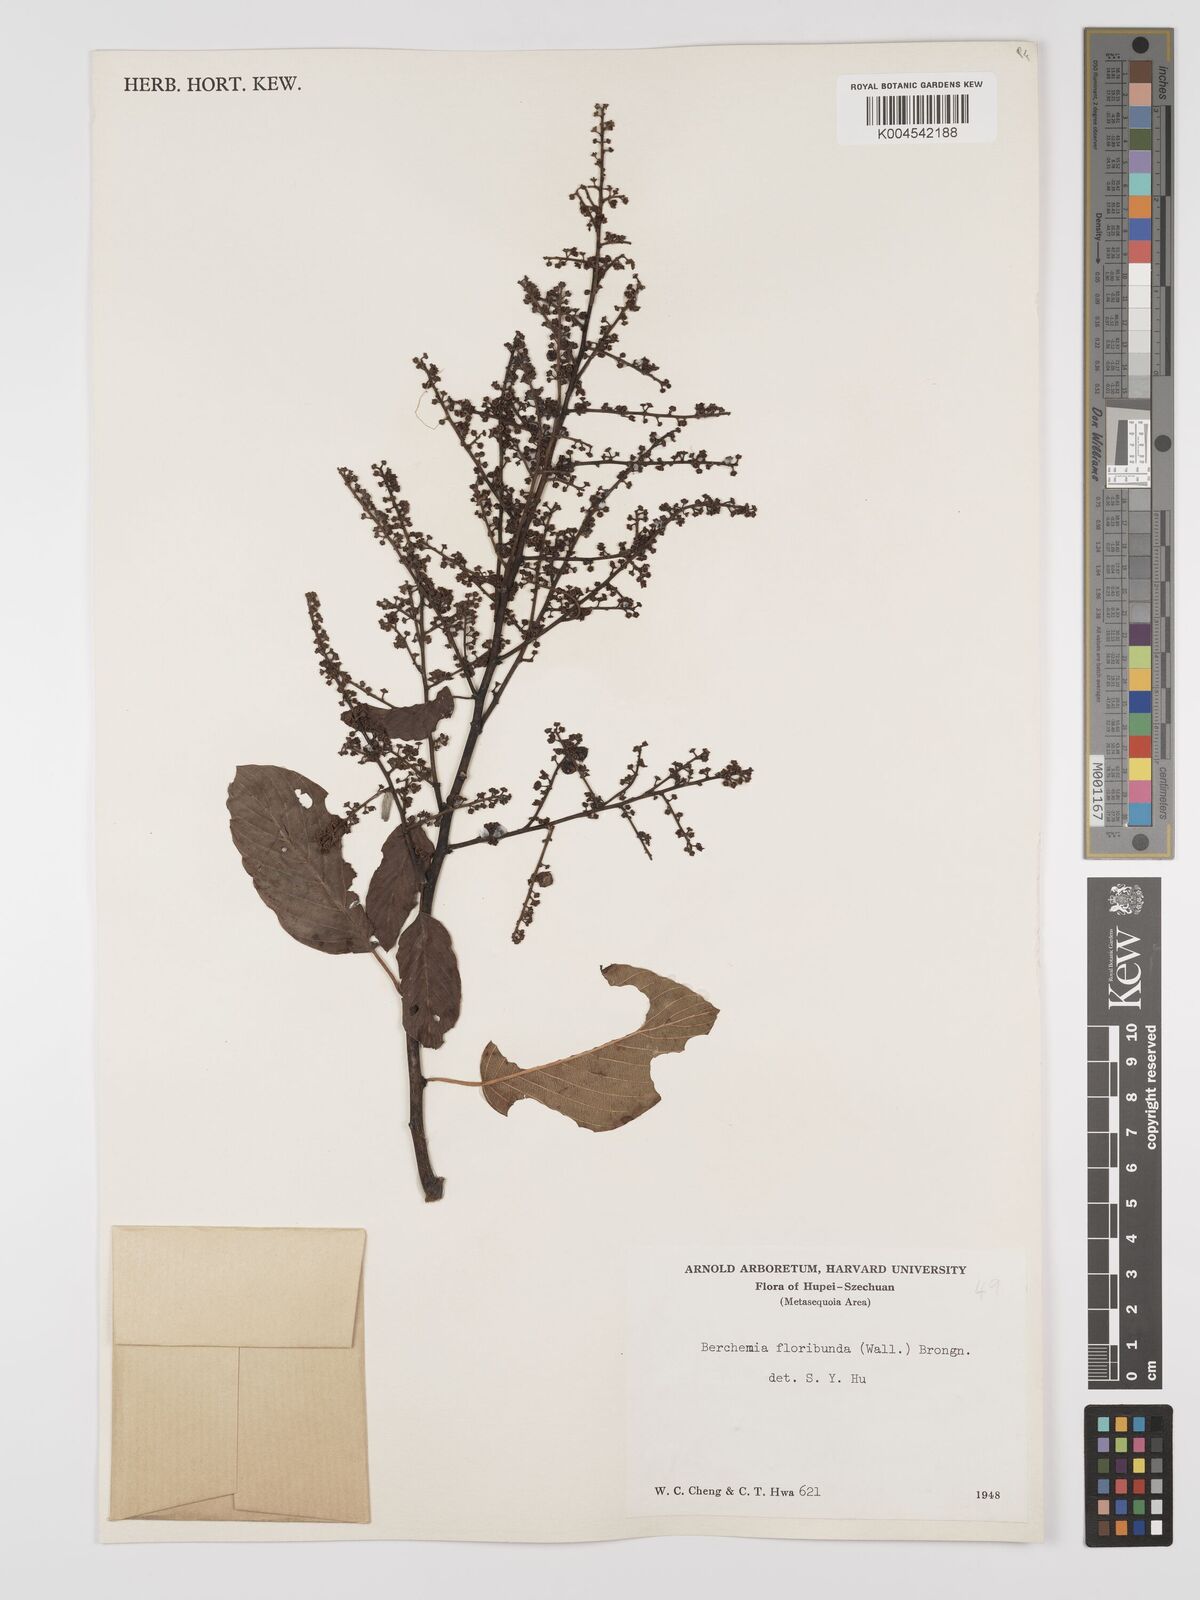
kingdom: Plantae
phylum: Tracheophyta
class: Magnoliopsida
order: Rosales
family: Rhamnaceae
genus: Berchemia
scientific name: Berchemia floribunda
